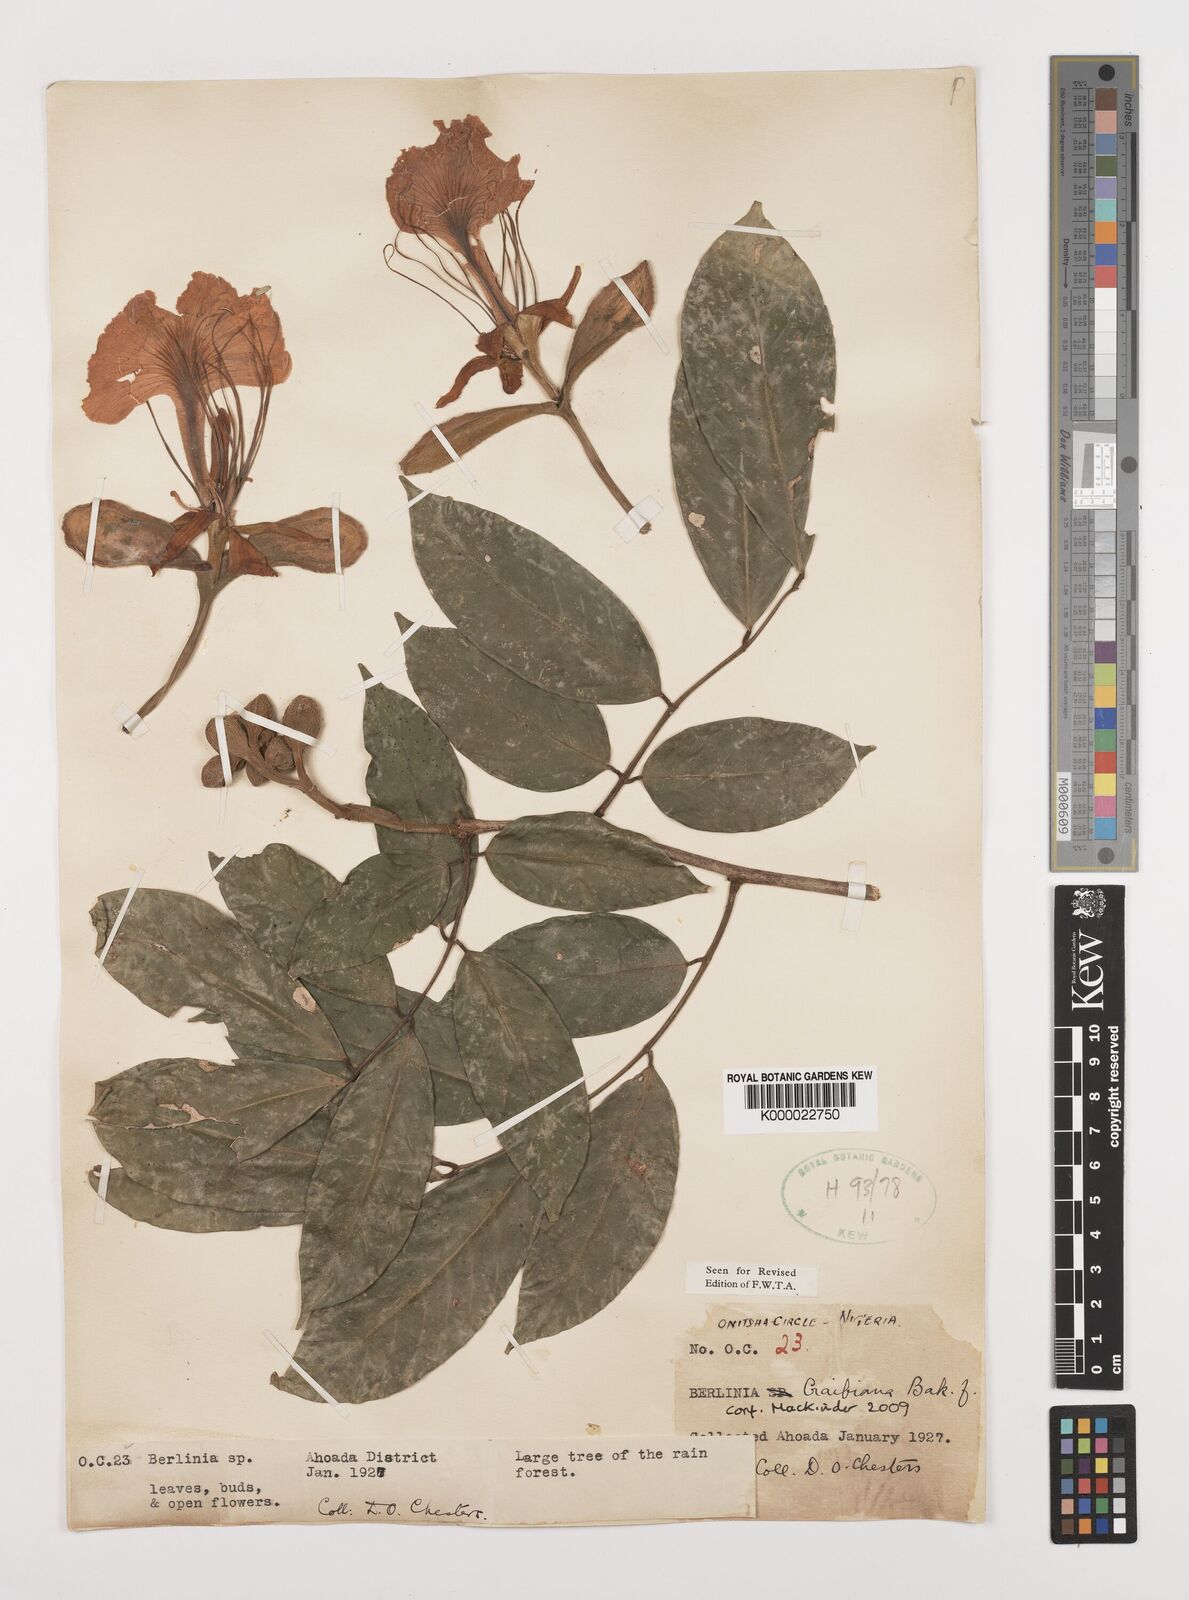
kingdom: Plantae
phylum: Tracheophyta
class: Magnoliopsida
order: Fabales
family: Fabaceae
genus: Berlinia
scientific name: Berlinia craibiana
